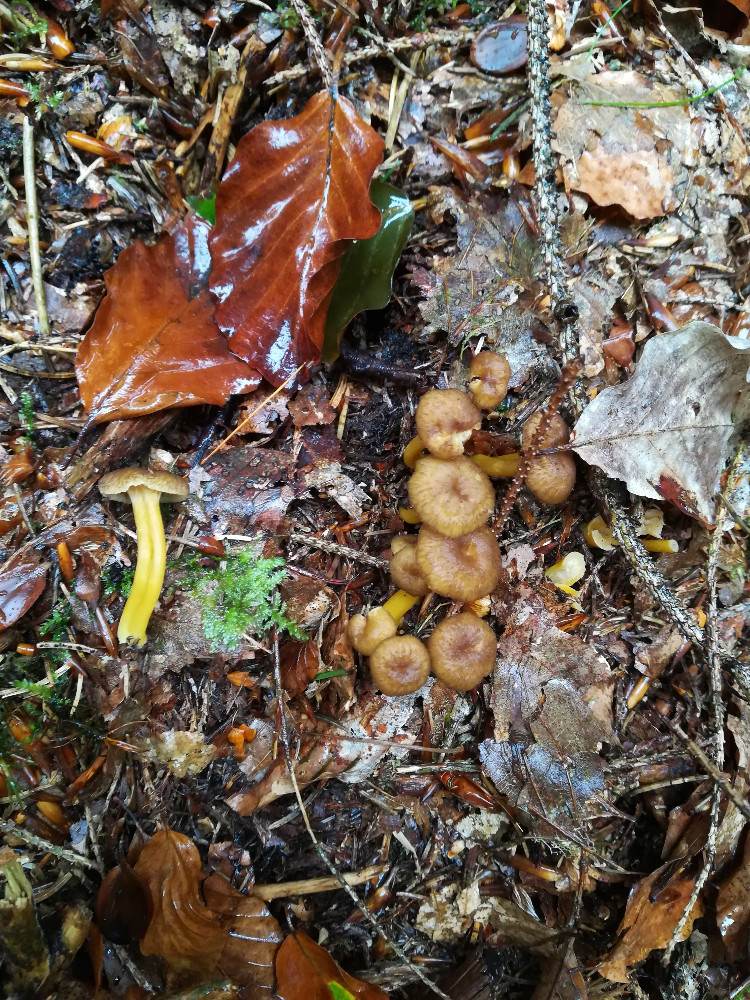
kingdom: Fungi
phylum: Basidiomycota
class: Agaricomycetes
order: Cantharellales
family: Hydnaceae
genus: Craterellus
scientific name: Craterellus tubaeformis
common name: tragt-kantarel
